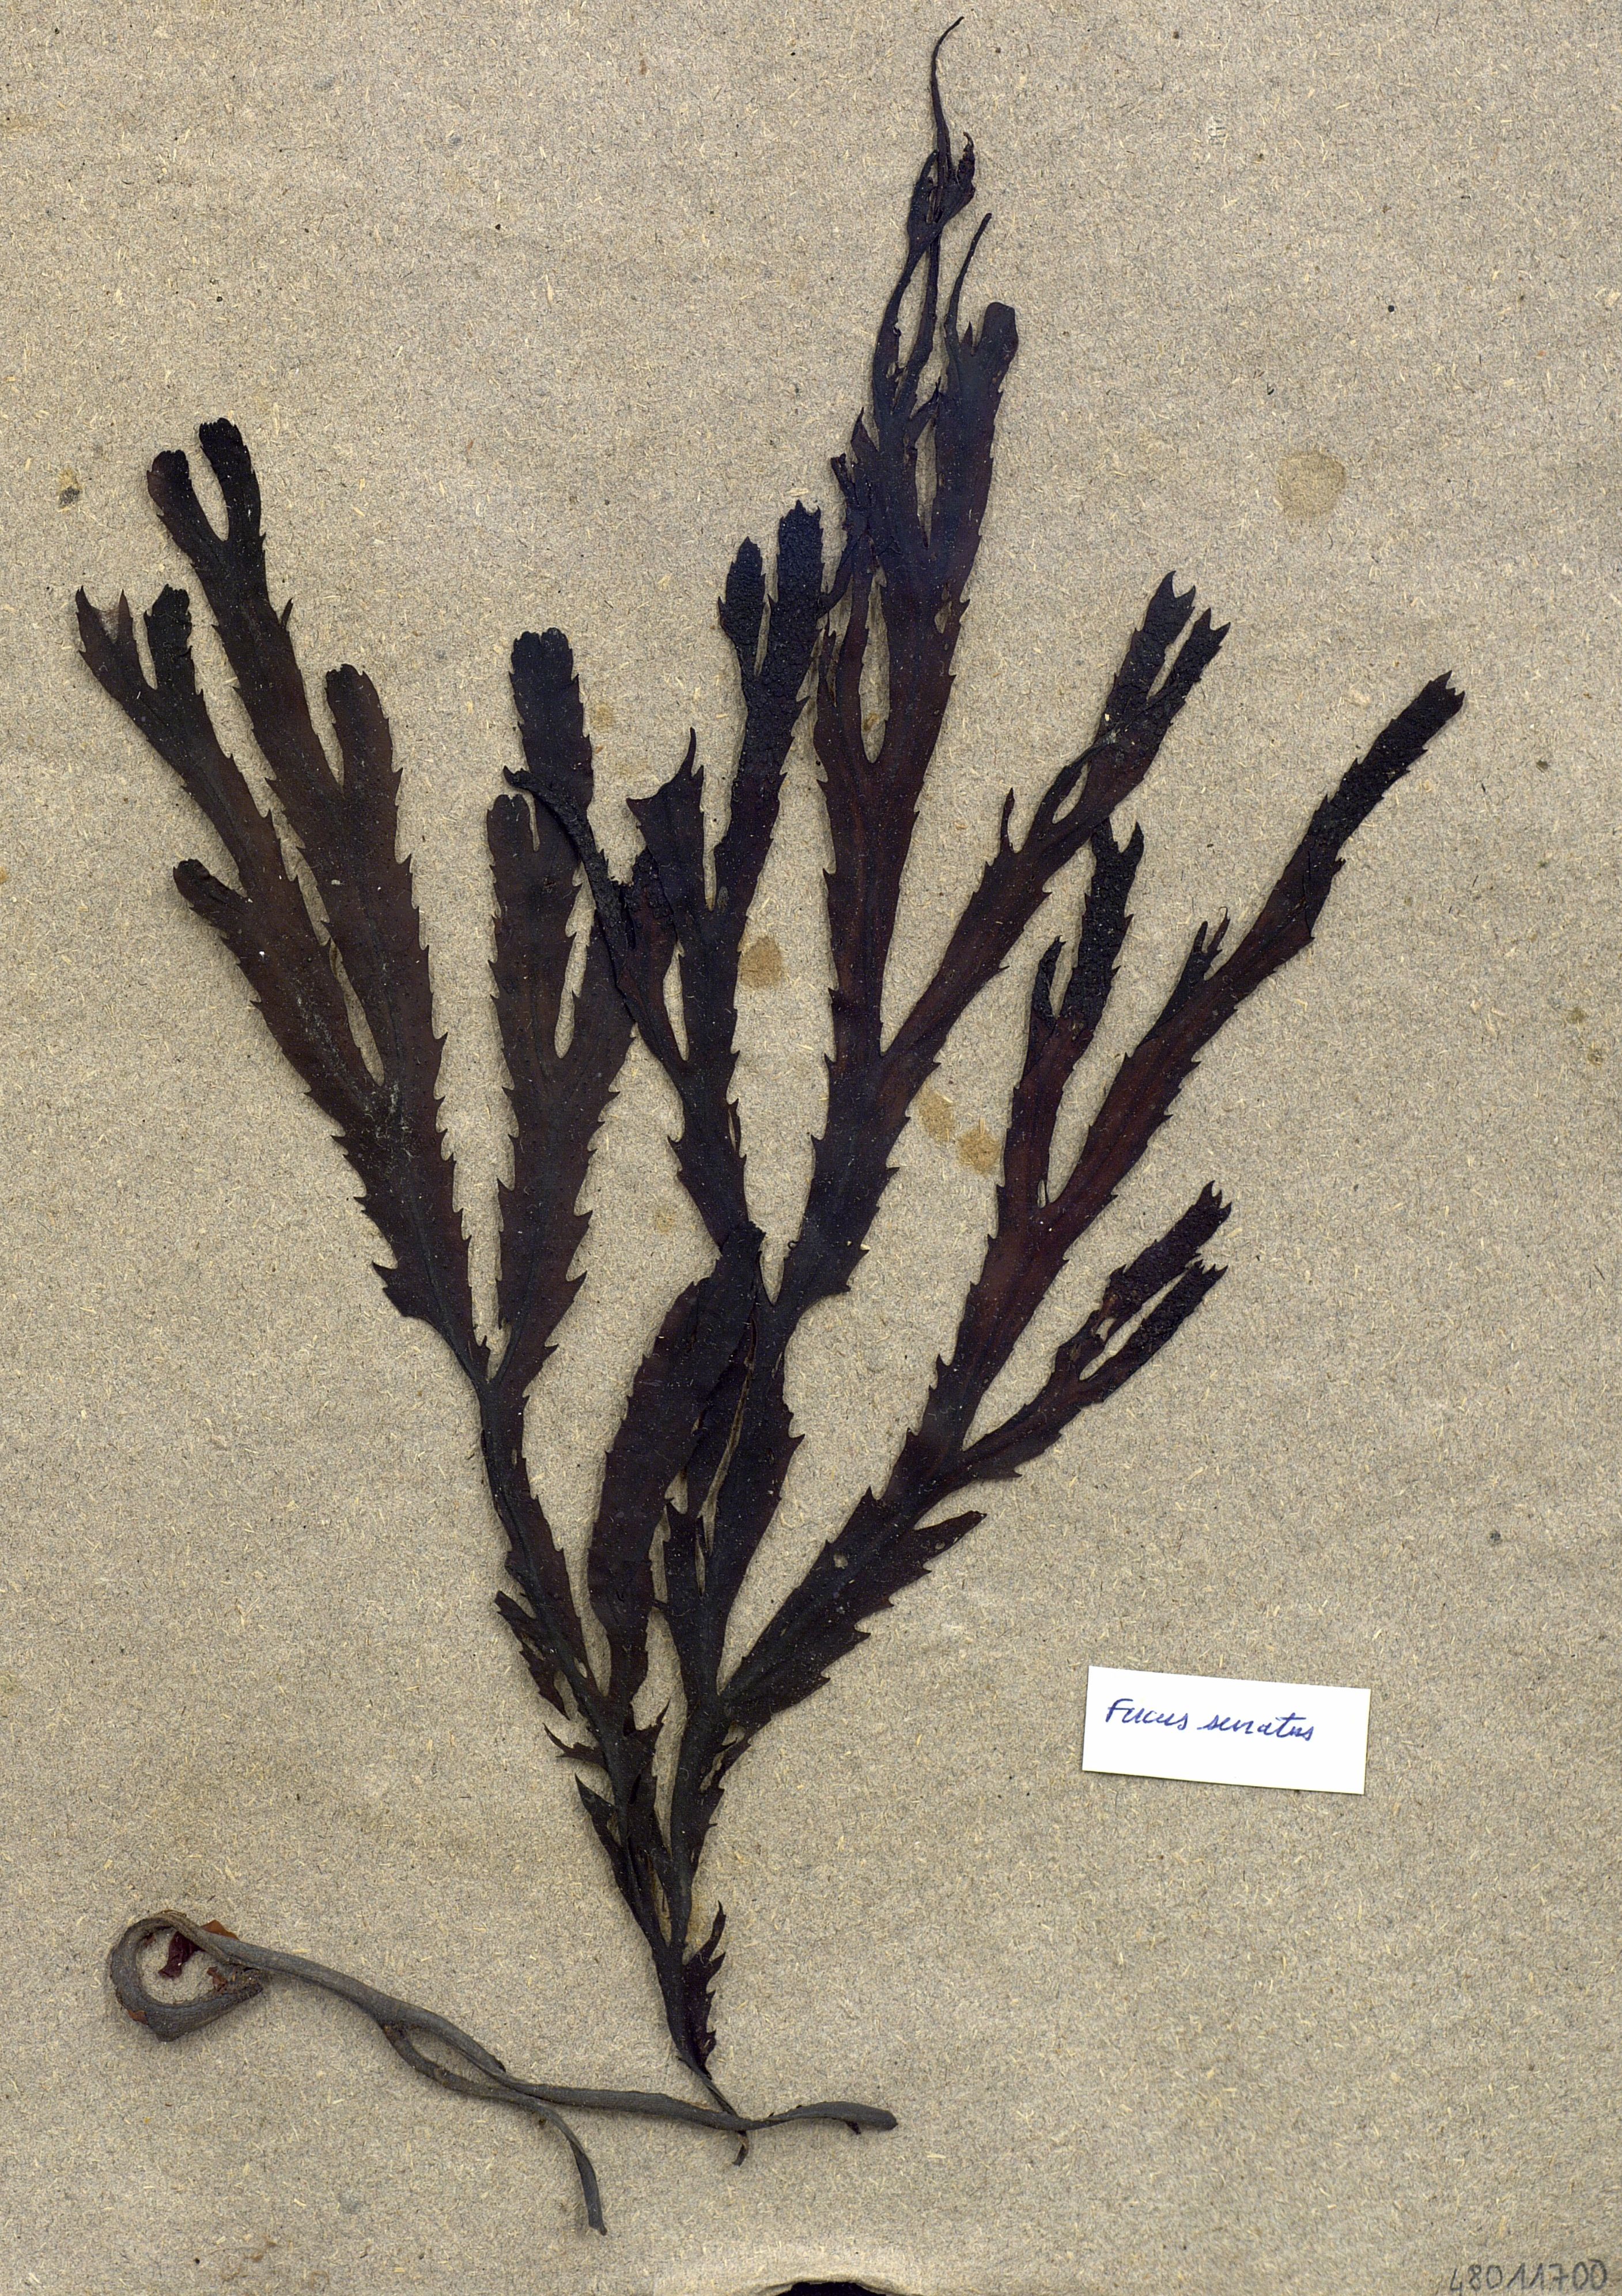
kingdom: Chromista
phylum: Ochrophyta
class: Phaeophyceae
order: Fucales
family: Fucaceae
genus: Fucus
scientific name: Fucus serratus
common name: Toothed wrack
